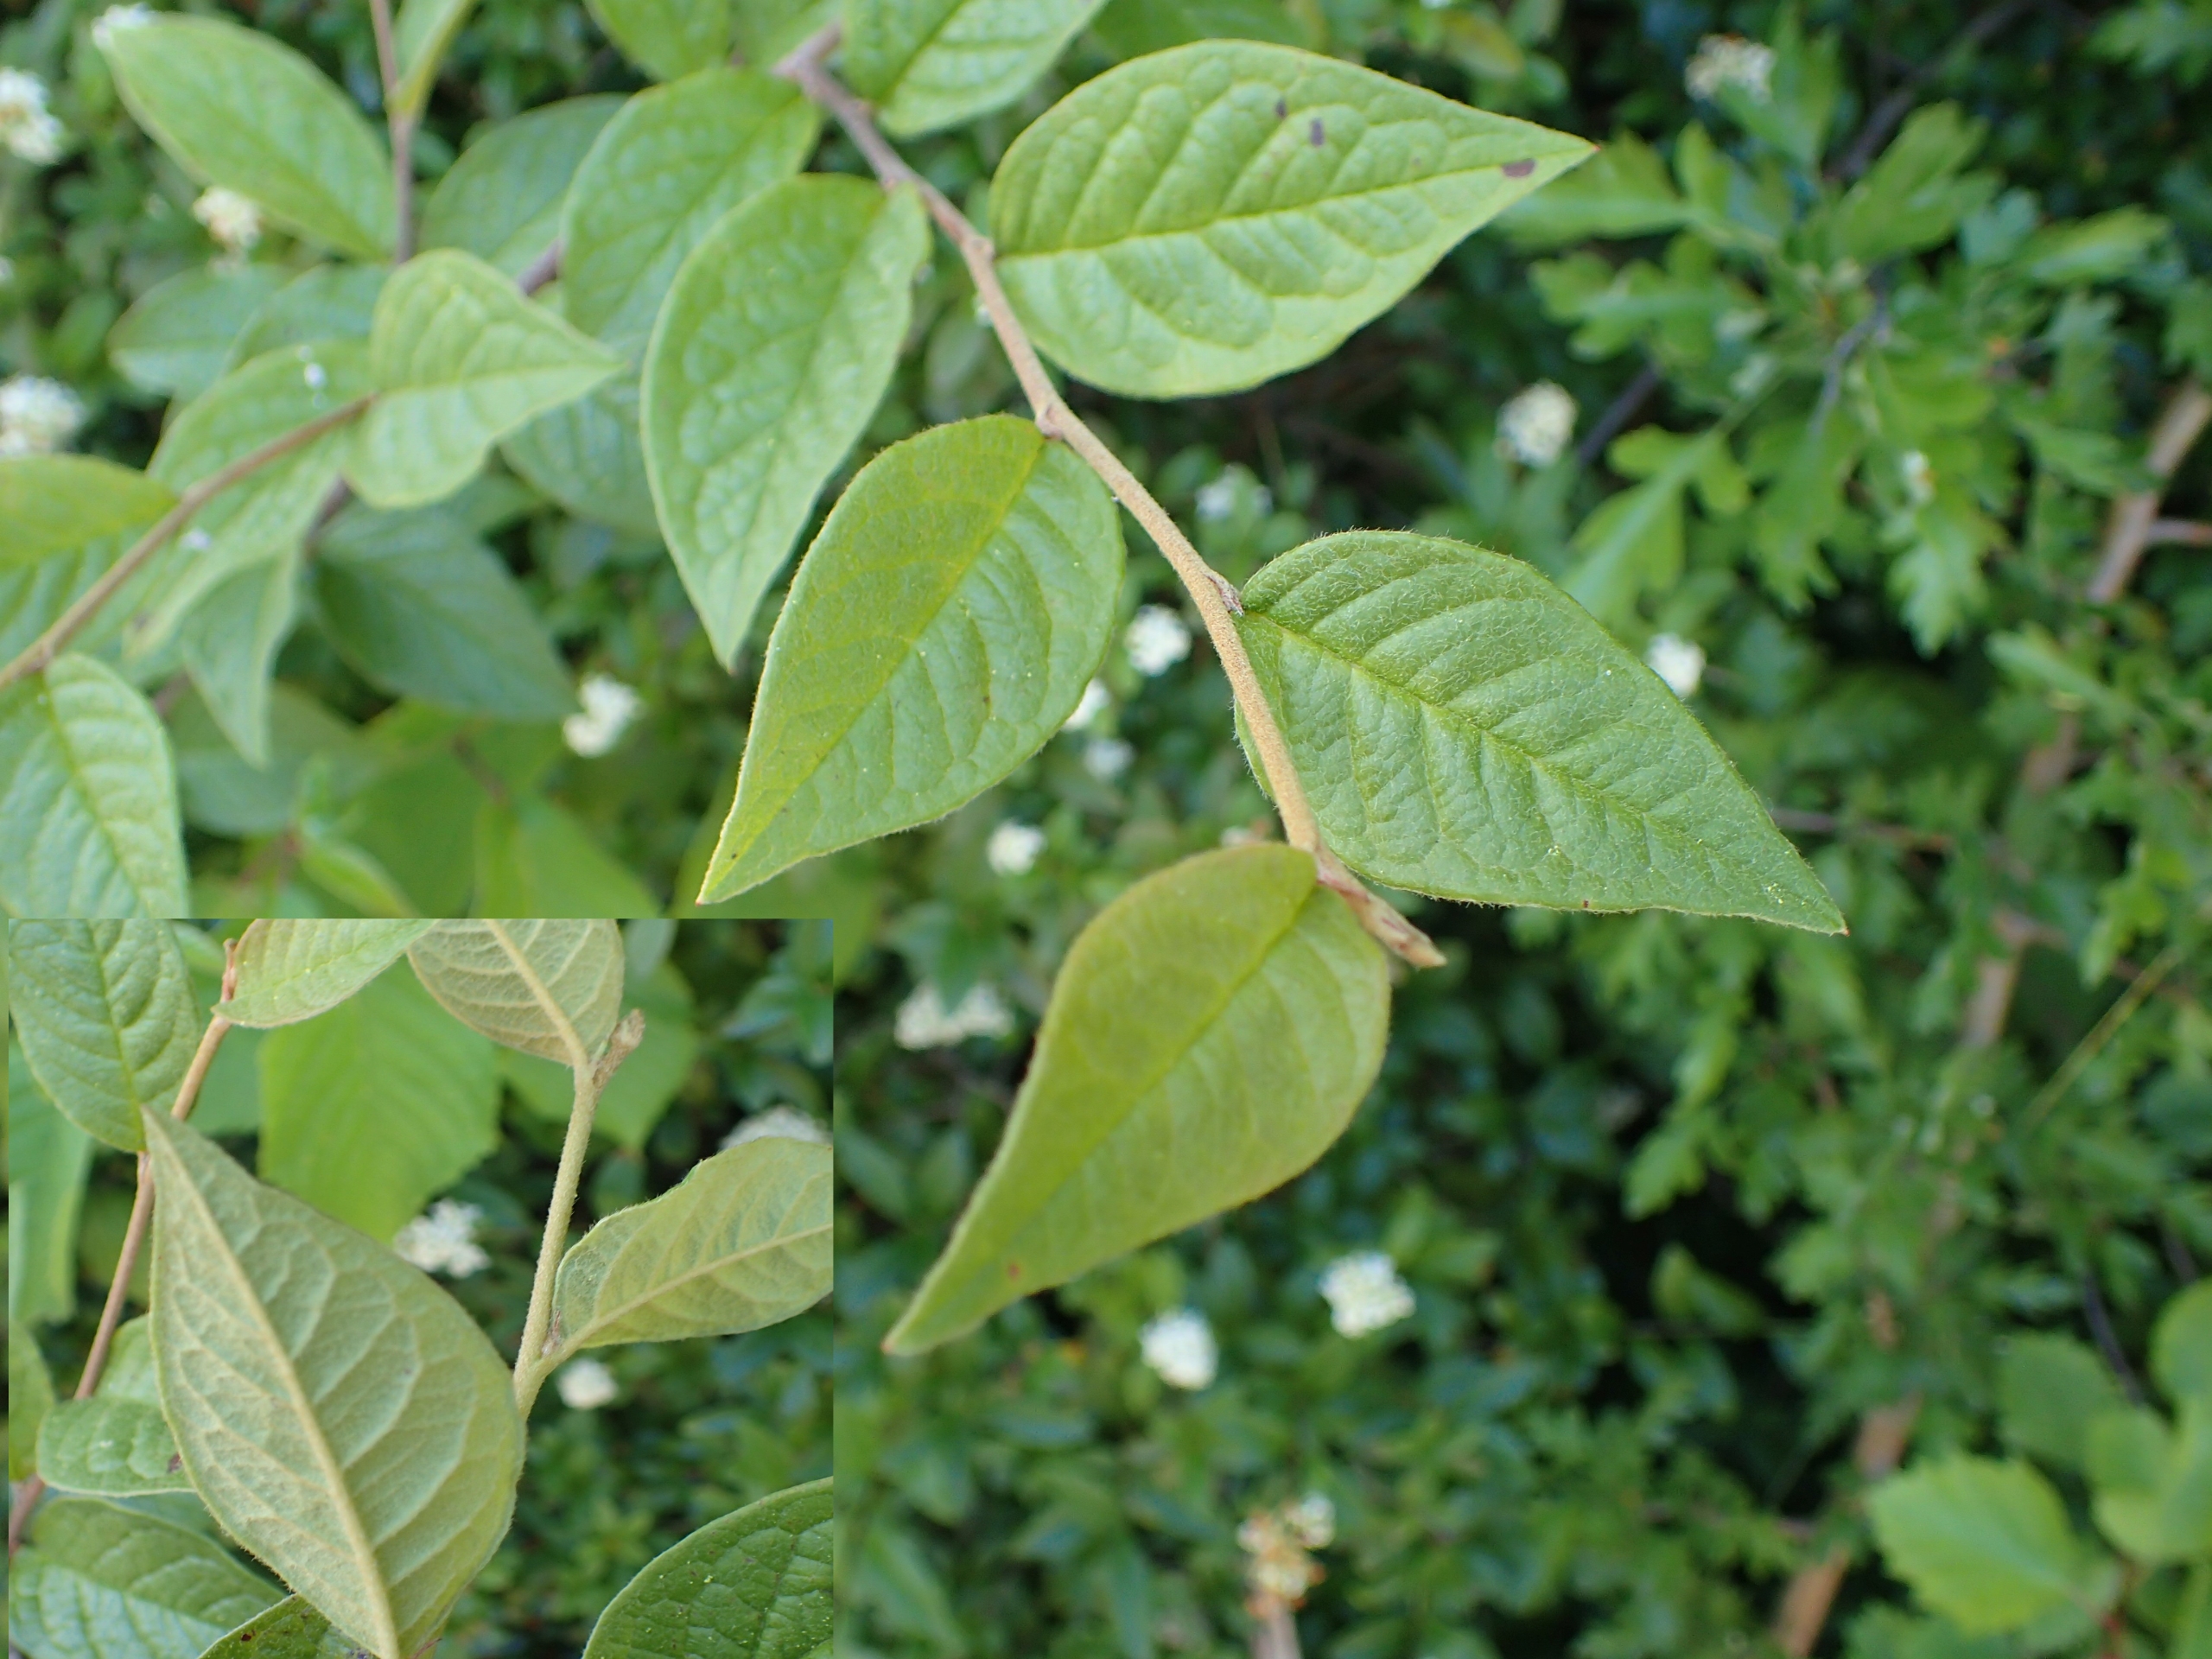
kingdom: Plantae
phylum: Tracheophyta
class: Magnoliopsida
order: Rosales
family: Rosaceae
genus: Cotoneaster
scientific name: Cotoneaster bullatus
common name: Buklet dværgmispel
